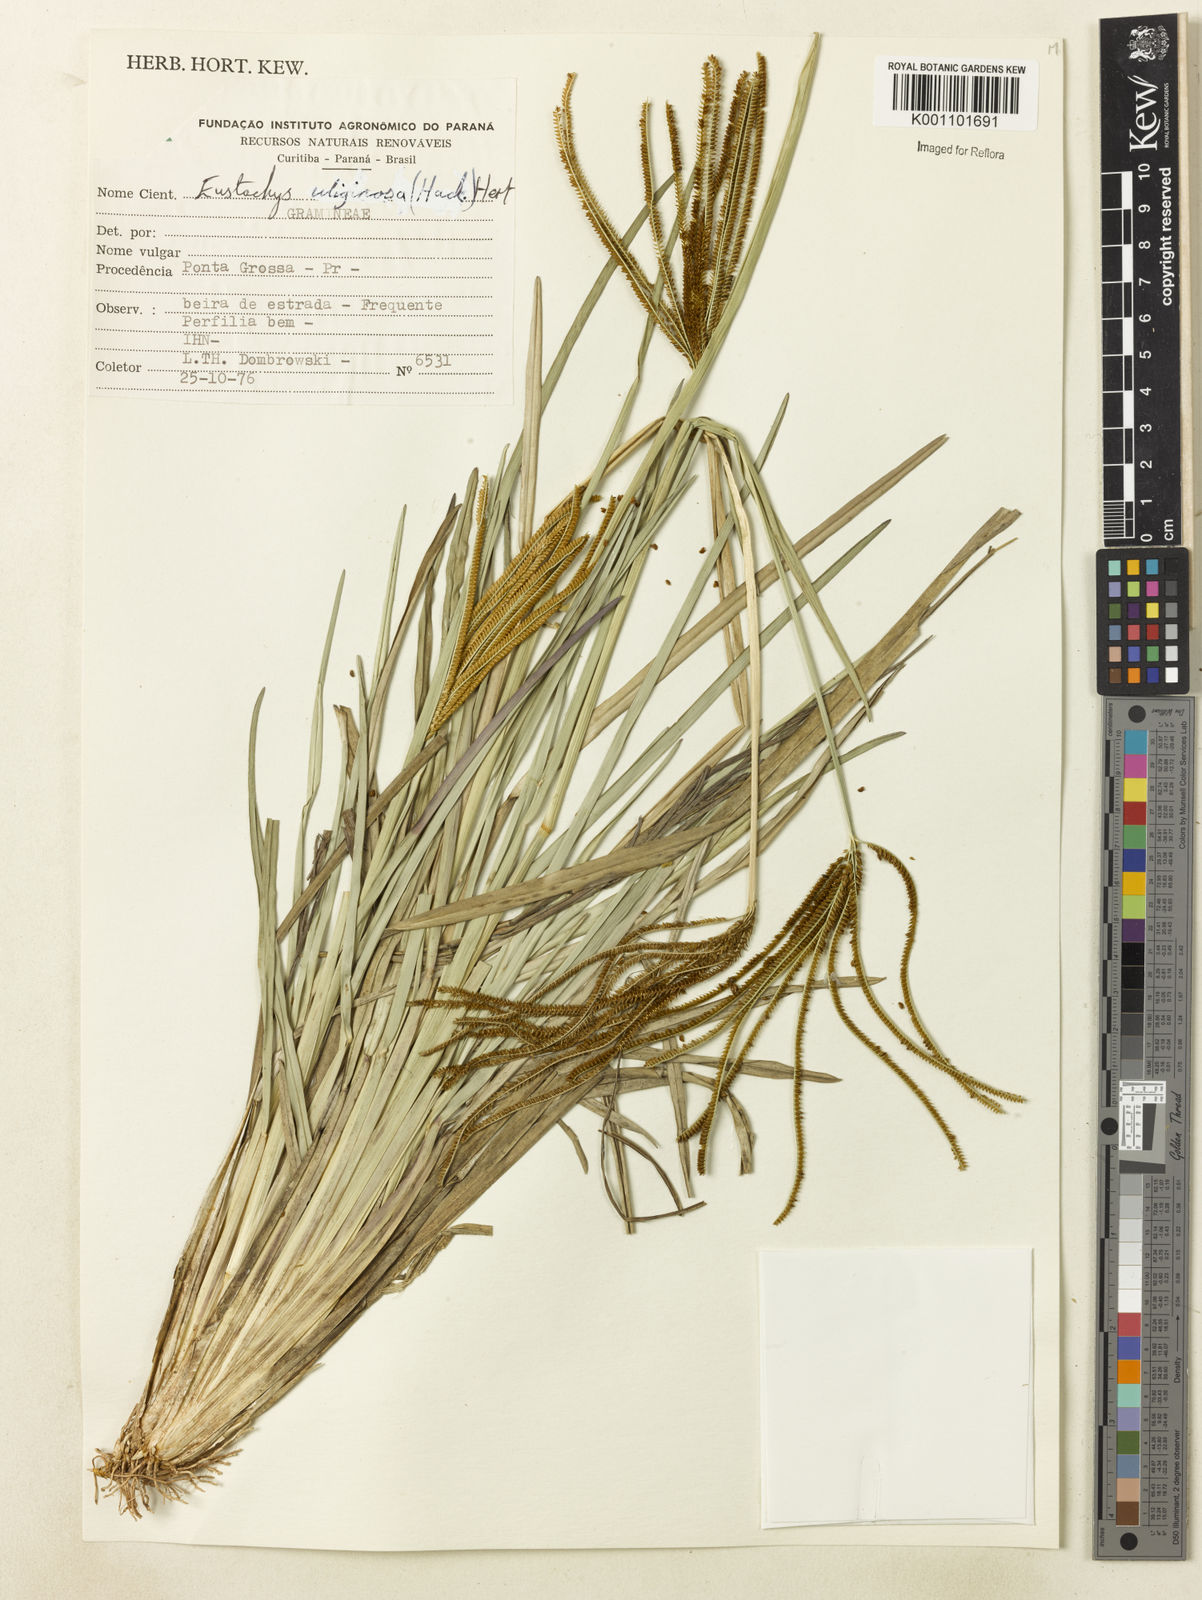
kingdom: Plantae
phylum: Tracheophyta
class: Liliopsida
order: Poales
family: Poaceae
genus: Eustachys
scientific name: Eustachys uliginosa
